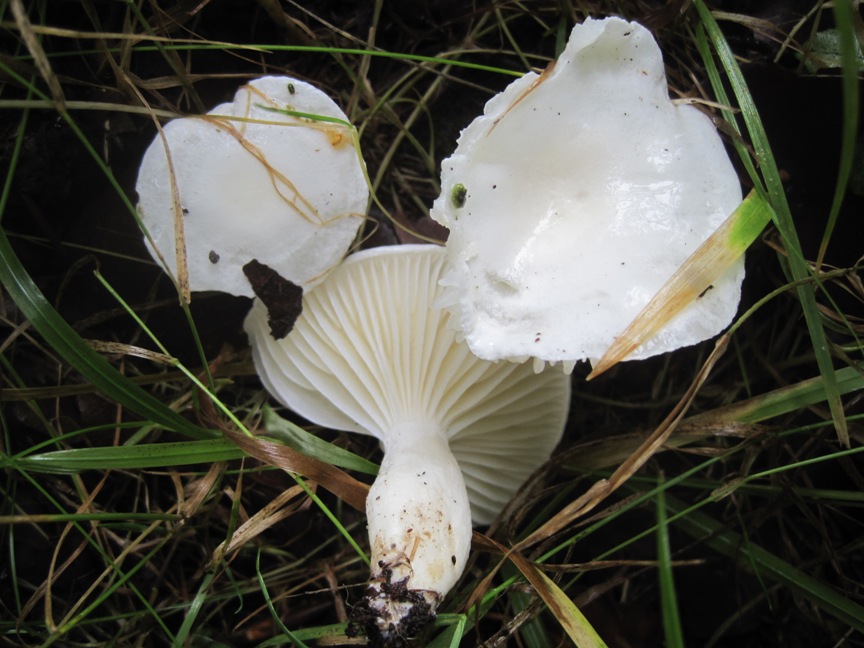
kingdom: Fungi
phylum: Basidiomycota
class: Agaricomycetes
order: Agaricales
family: Hygrophoraceae
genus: Hygrophorus
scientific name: Hygrophorus eburneus
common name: elfenbens-sneglehat
